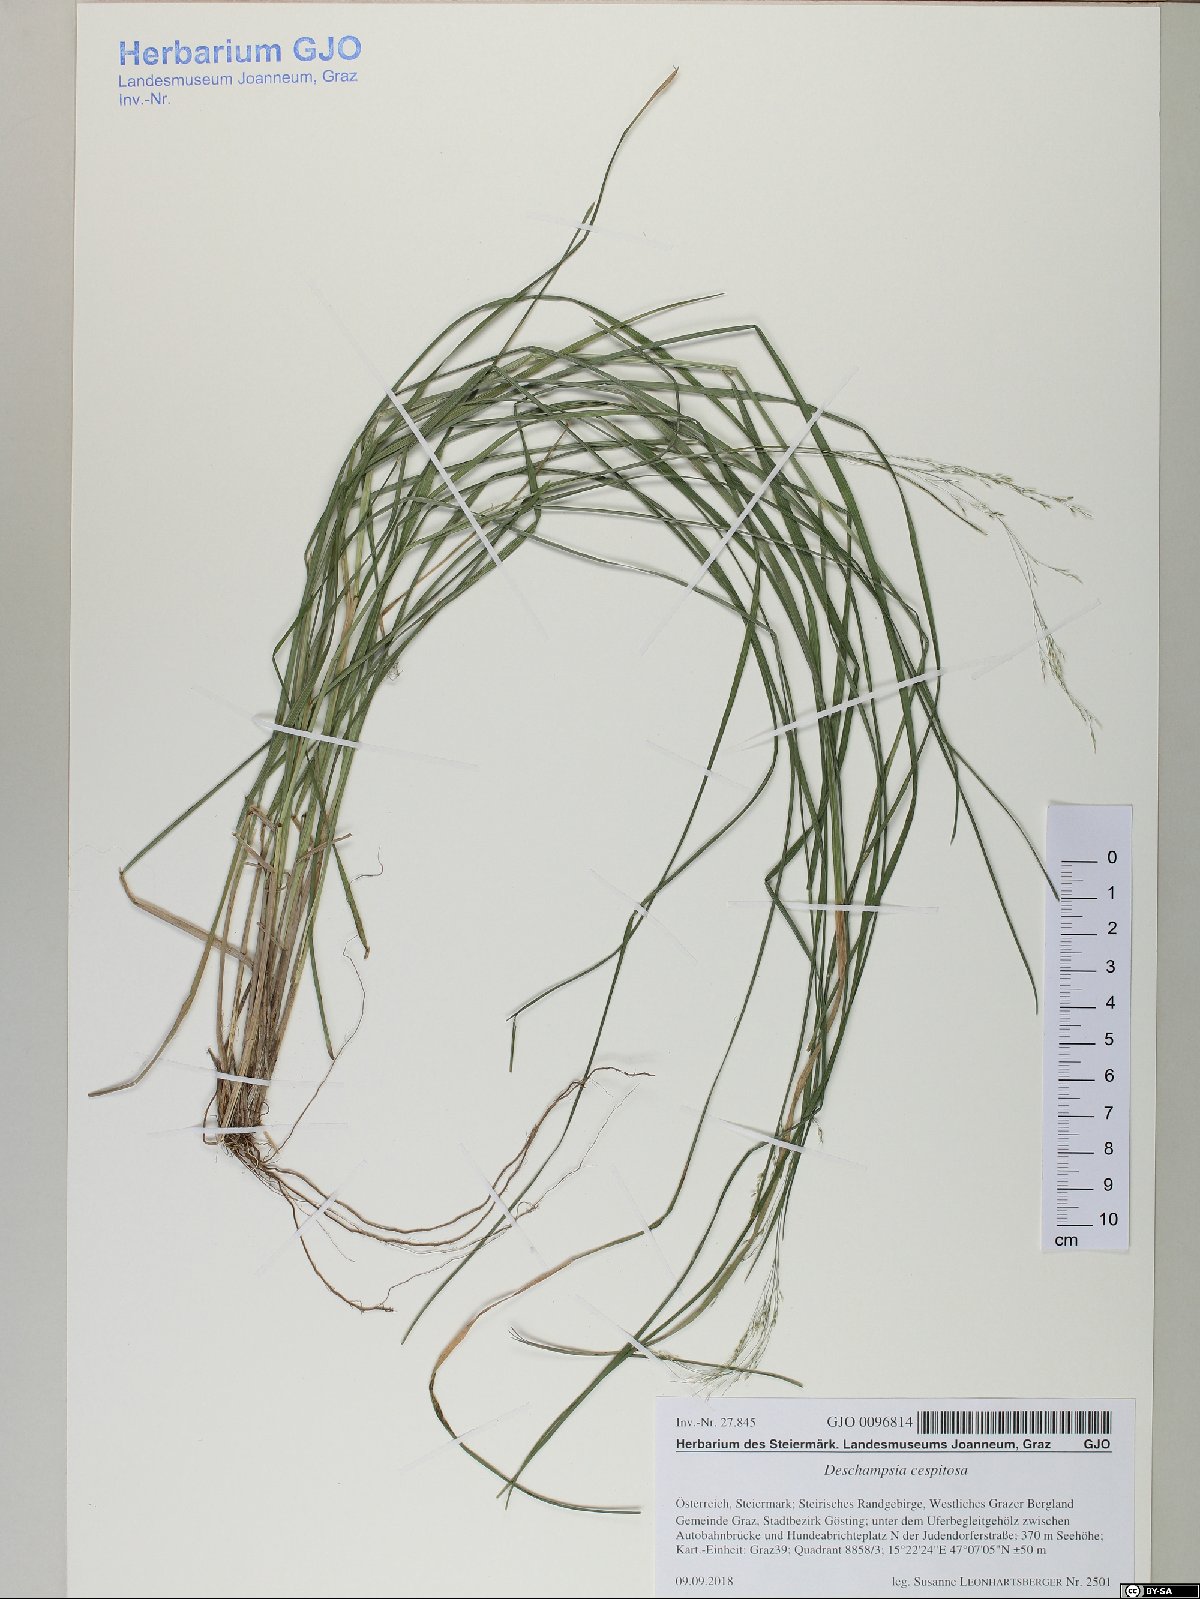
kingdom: Plantae
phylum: Tracheophyta
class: Liliopsida
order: Poales
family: Poaceae
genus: Deschampsia
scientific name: Deschampsia cespitosa
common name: Tufted hair-grass
